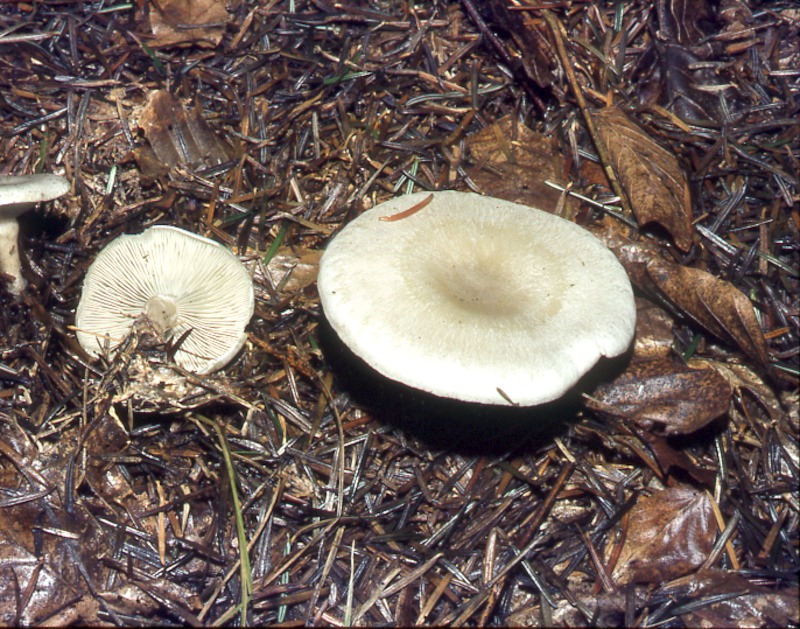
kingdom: Fungi
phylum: Basidiomycota
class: Agaricomycetes
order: Agaricales
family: Tricholomataceae
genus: Clitocybe
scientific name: Clitocybe odora
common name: Aniseed funnel
